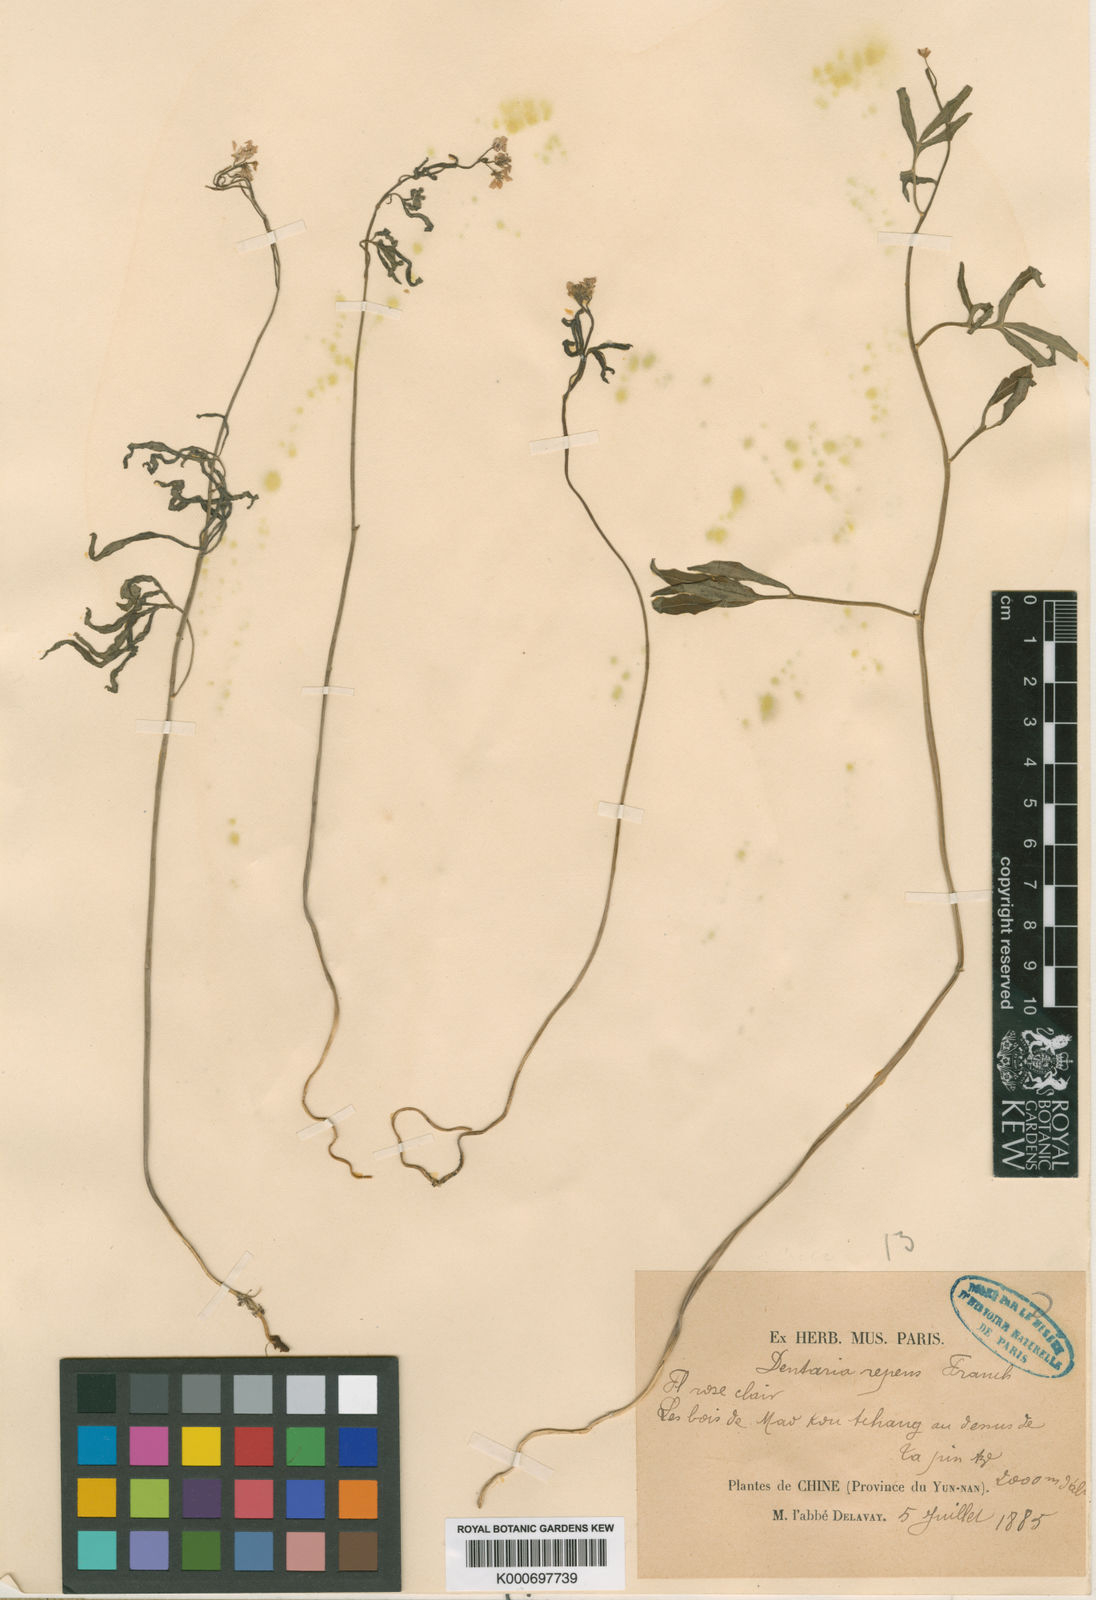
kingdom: Plantae
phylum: Tracheophyta
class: Magnoliopsida
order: Brassicales
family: Brassicaceae
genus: Cardamine
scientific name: Cardamine repens
